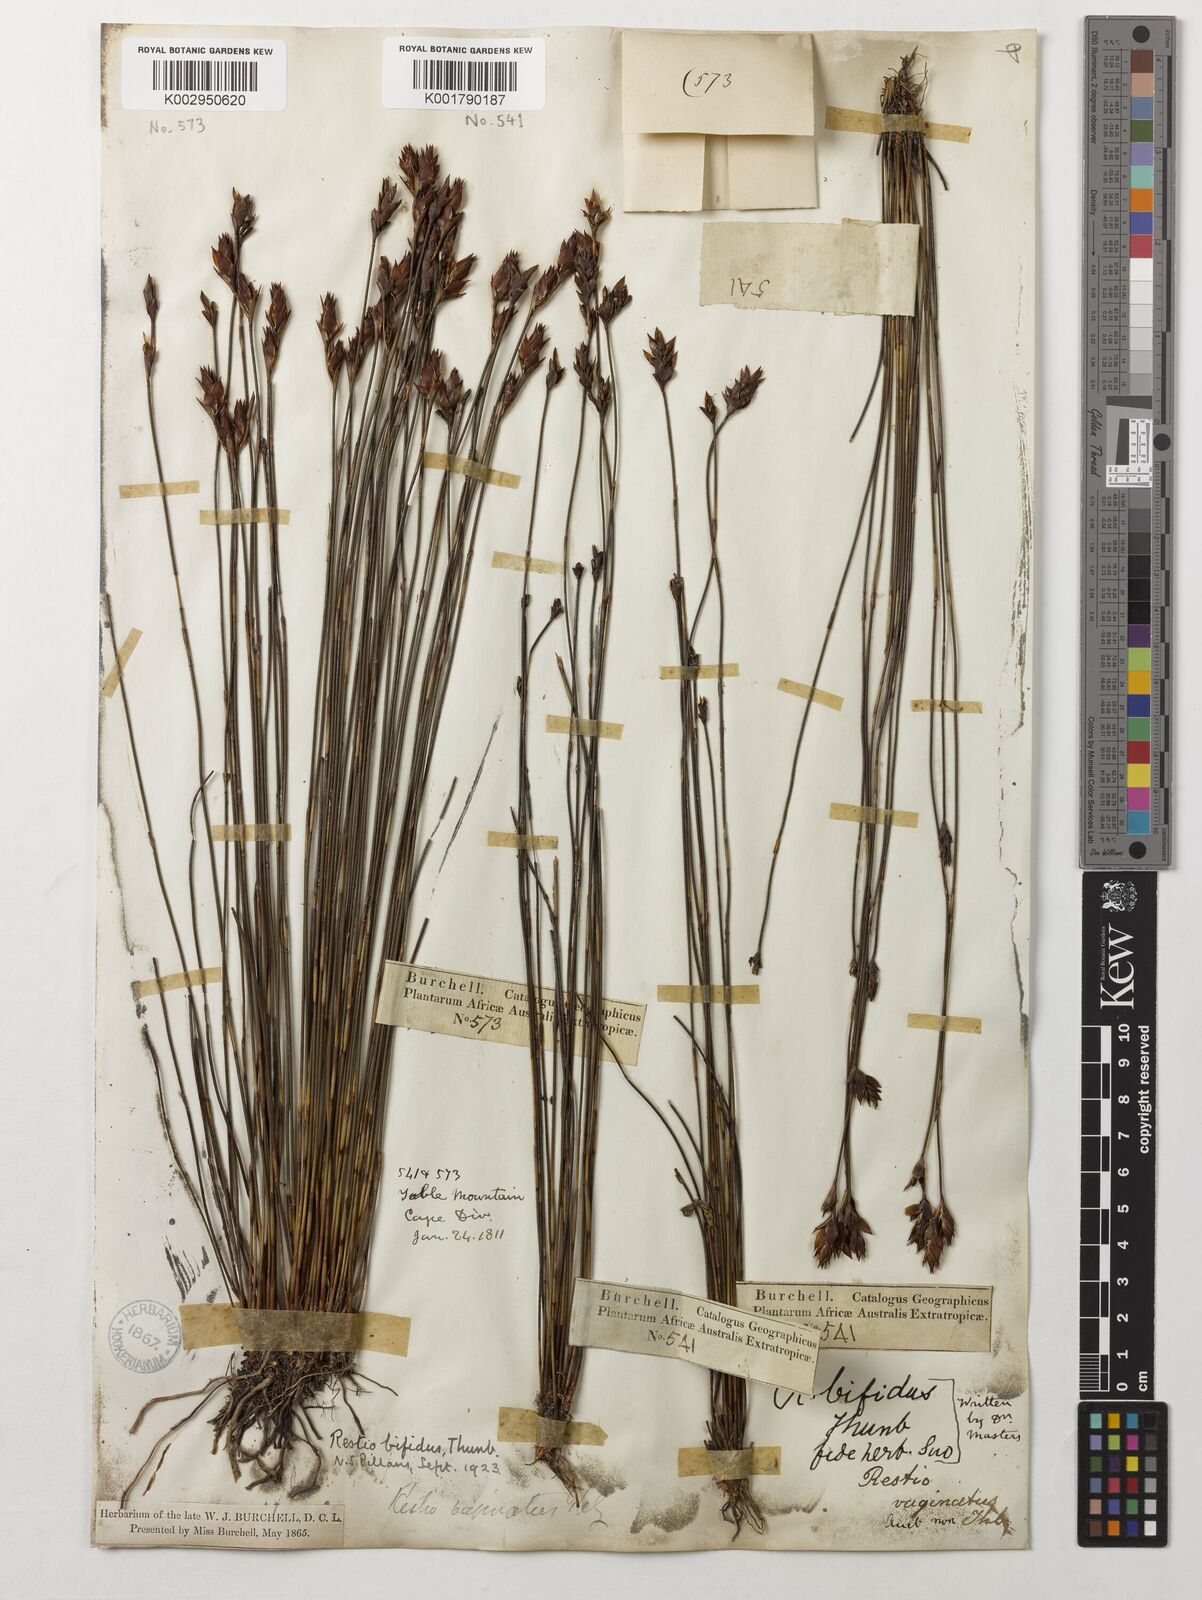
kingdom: Plantae
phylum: Tracheophyta
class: Liliopsida
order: Poales
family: Restionaceae
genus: Restio
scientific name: Restio bifidus
